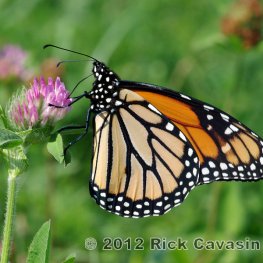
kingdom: Animalia
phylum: Arthropoda
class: Insecta
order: Lepidoptera
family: Nymphalidae
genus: Danaus
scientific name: Danaus plexippus
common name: Monarch
